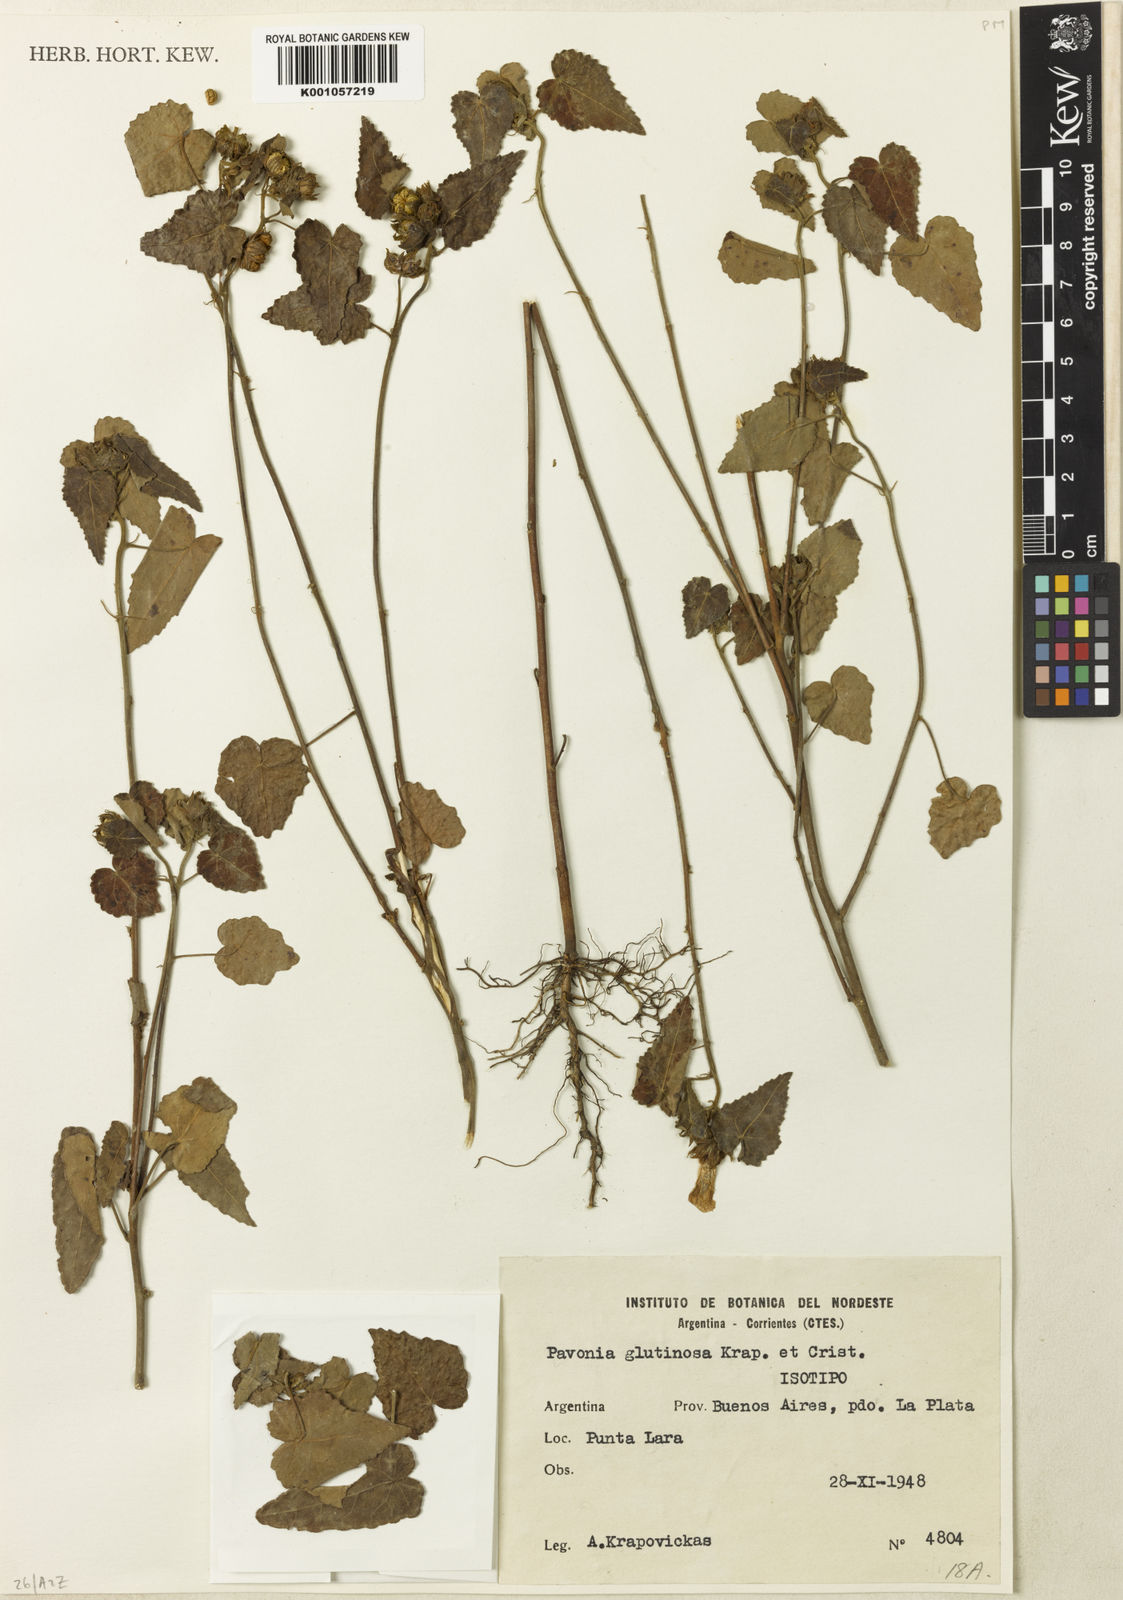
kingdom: Plantae
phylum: Tracheophyta
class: Magnoliopsida
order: Malvales
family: Malvaceae
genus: Pavonia
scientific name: Pavonia
